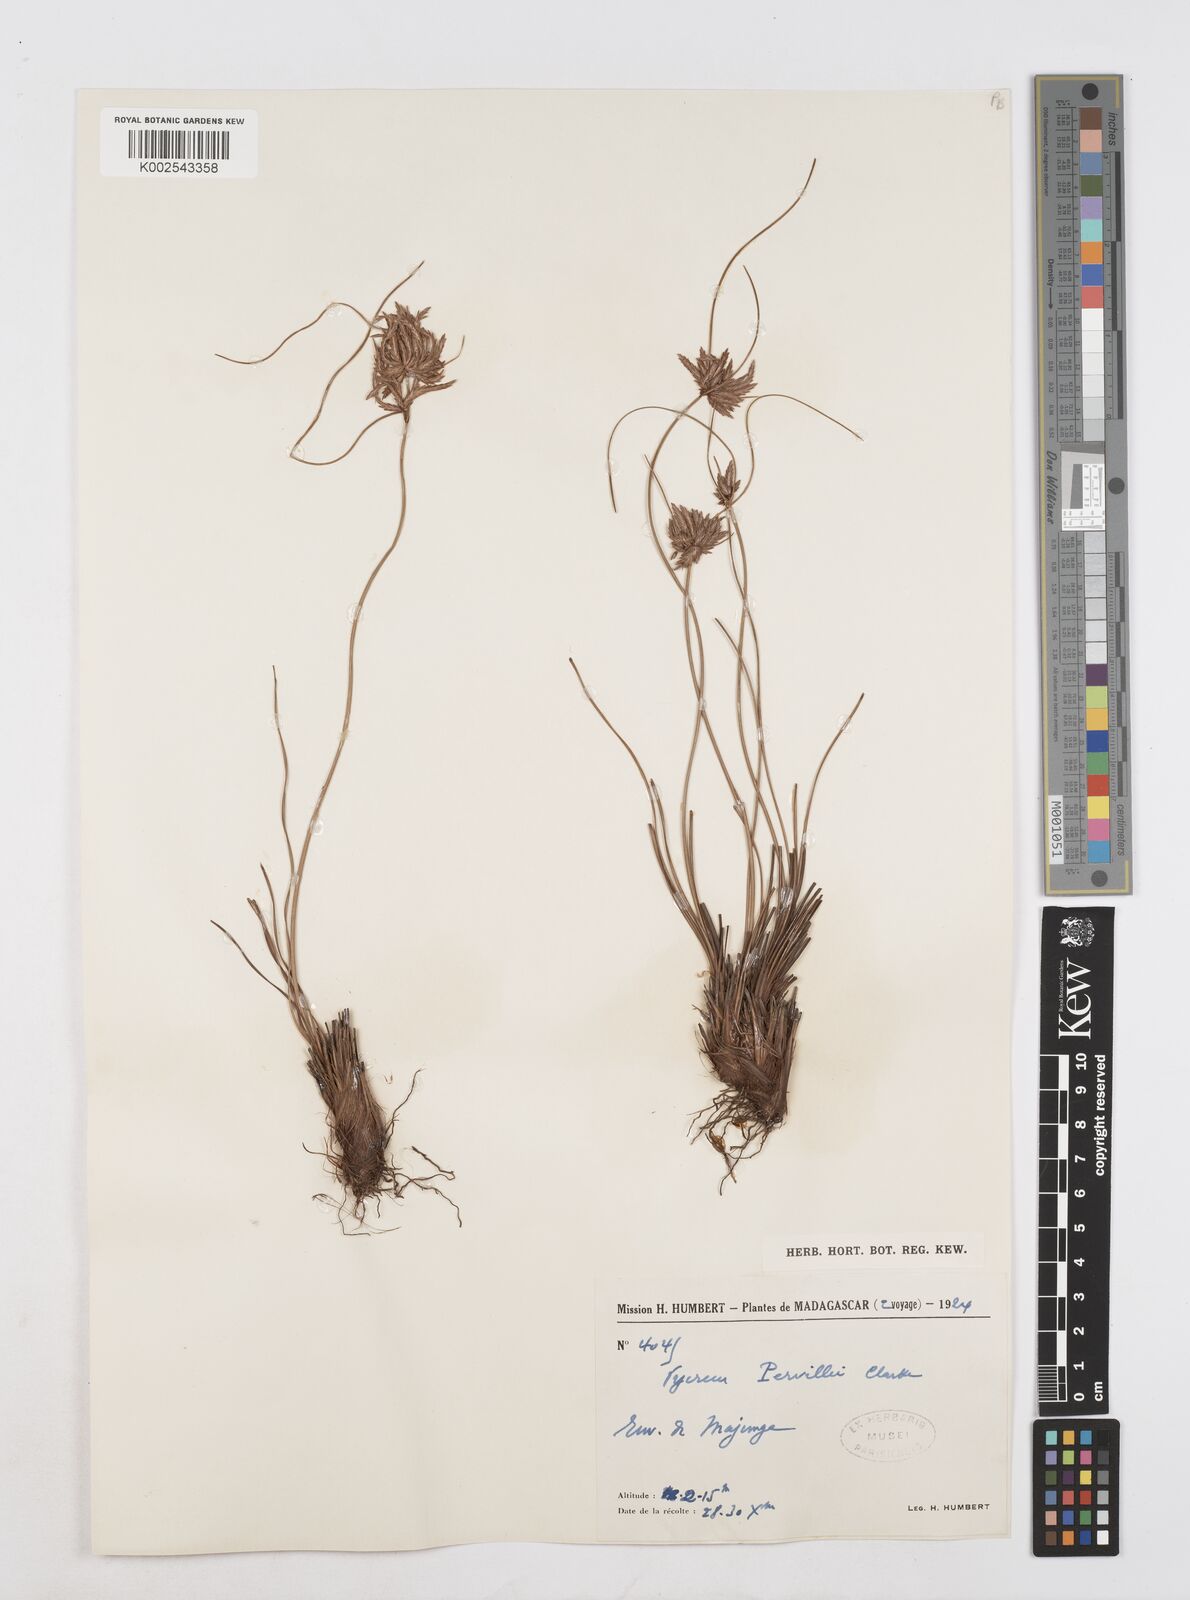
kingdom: Plantae
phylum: Tracheophyta
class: Liliopsida
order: Poales
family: Cyperaceae
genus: Cyperus
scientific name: Cyperus pervillei
